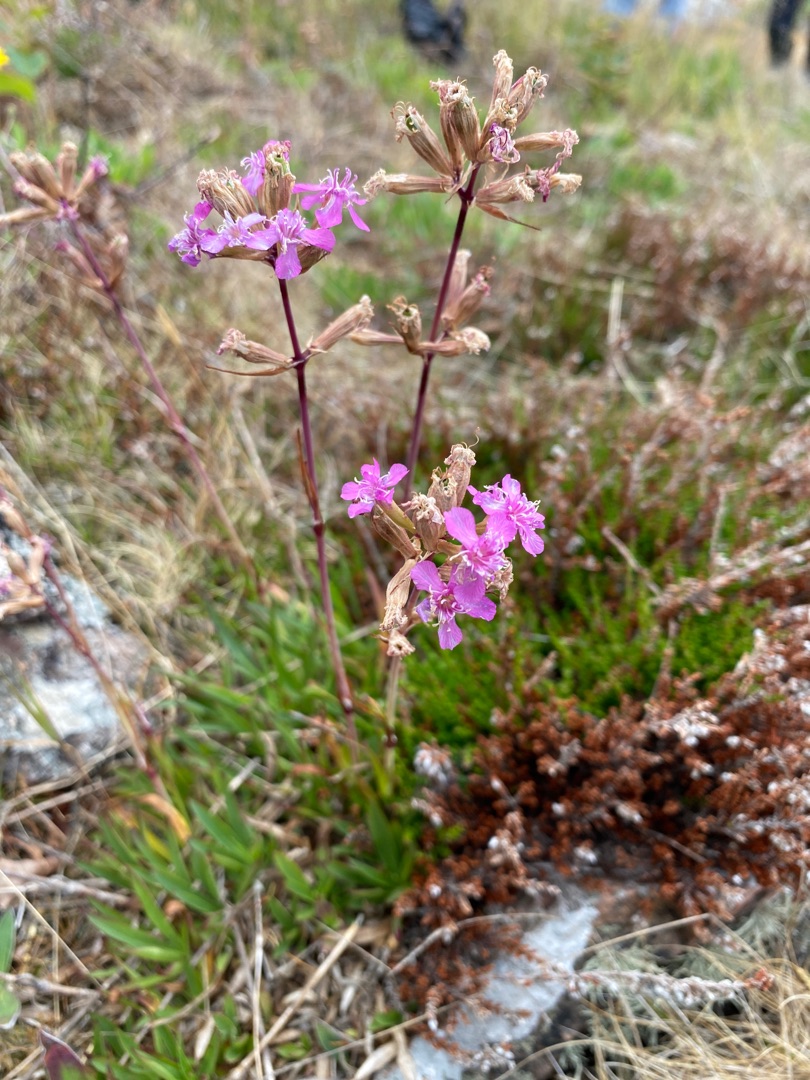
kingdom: Plantae
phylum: Tracheophyta
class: Magnoliopsida
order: Caryophyllales
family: Caryophyllaceae
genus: Viscaria
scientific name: Viscaria vulgaris
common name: Tjærenellike
